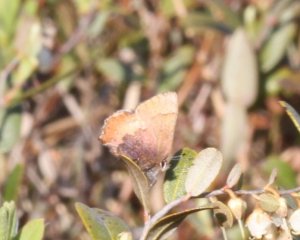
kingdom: Animalia
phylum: Arthropoda
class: Insecta
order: Lepidoptera
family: Lycaenidae
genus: Incisalia
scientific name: Incisalia irioides
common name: Brown Elfin
